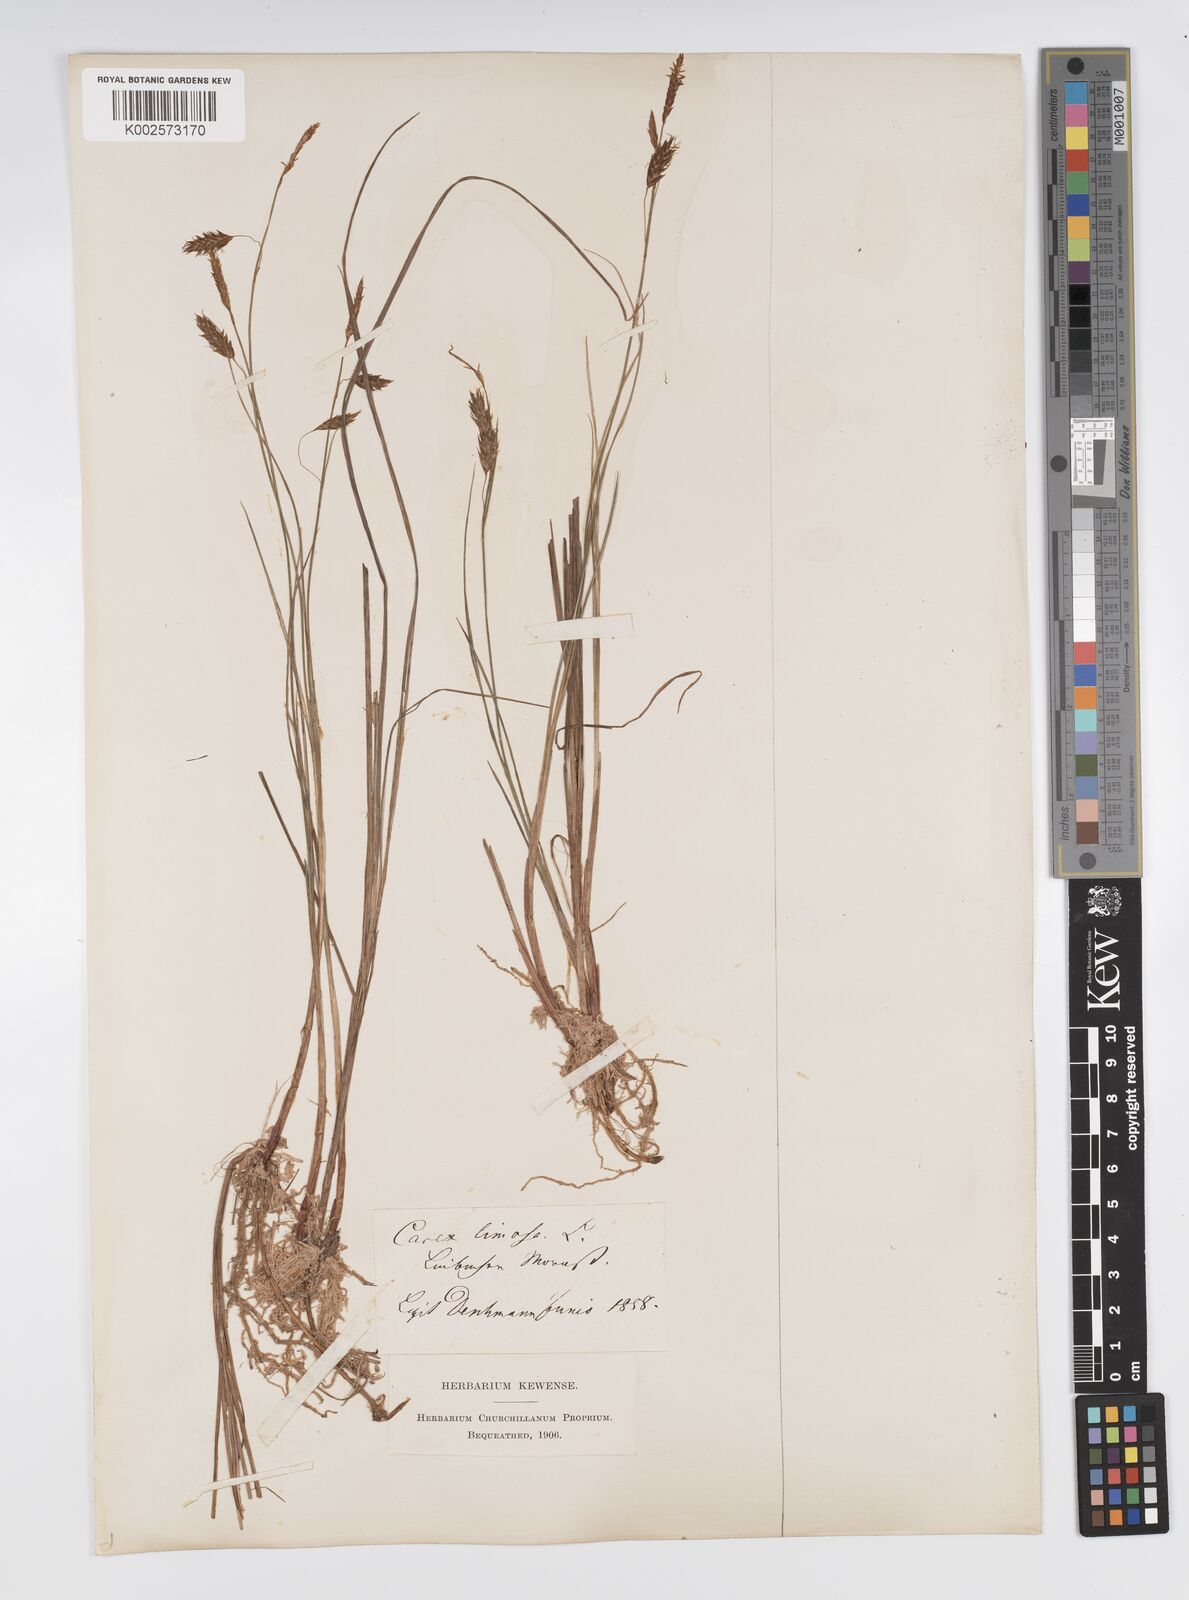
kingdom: Plantae
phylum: Tracheophyta
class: Liliopsida
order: Poales
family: Cyperaceae
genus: Carex
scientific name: Carex limosa
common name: Bog sedge
